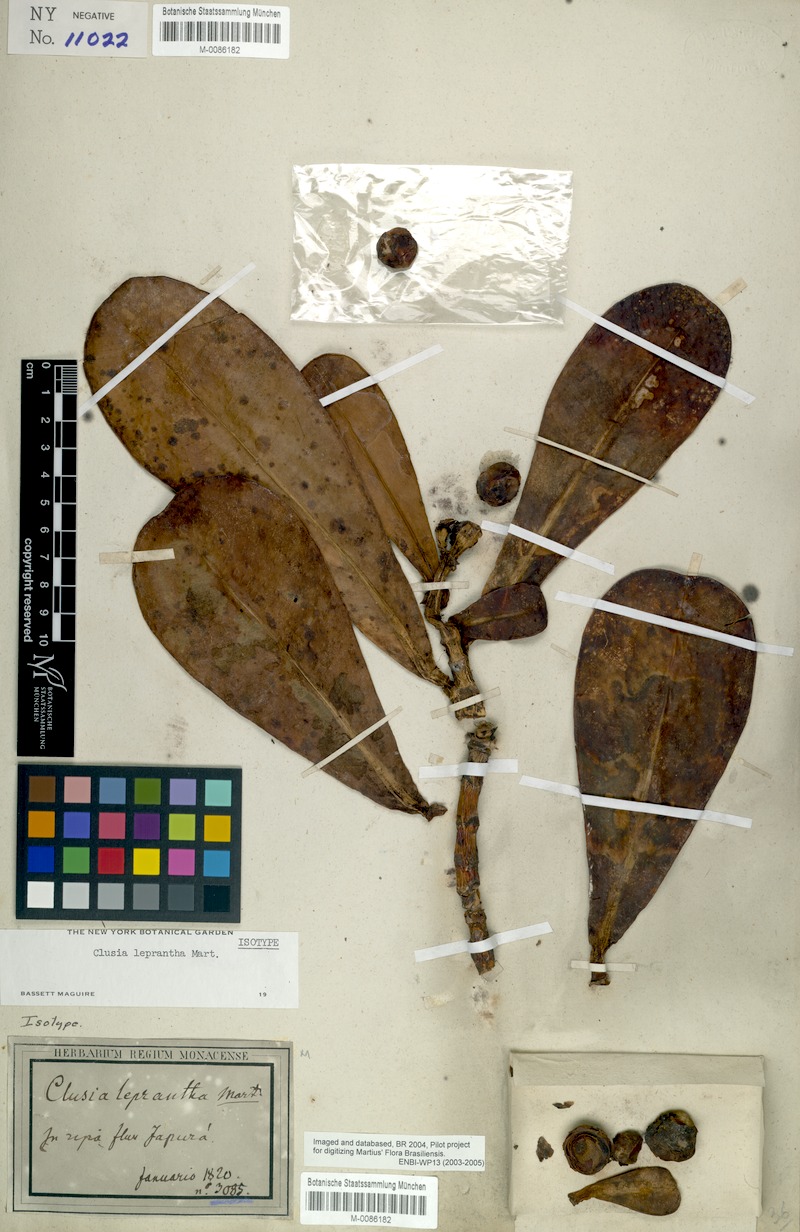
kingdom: Plantae
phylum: Tracheophyta
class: Magnoliopsida
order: Malpighiales
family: Clusiaceae
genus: Clusia
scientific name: Clusia leprantha
